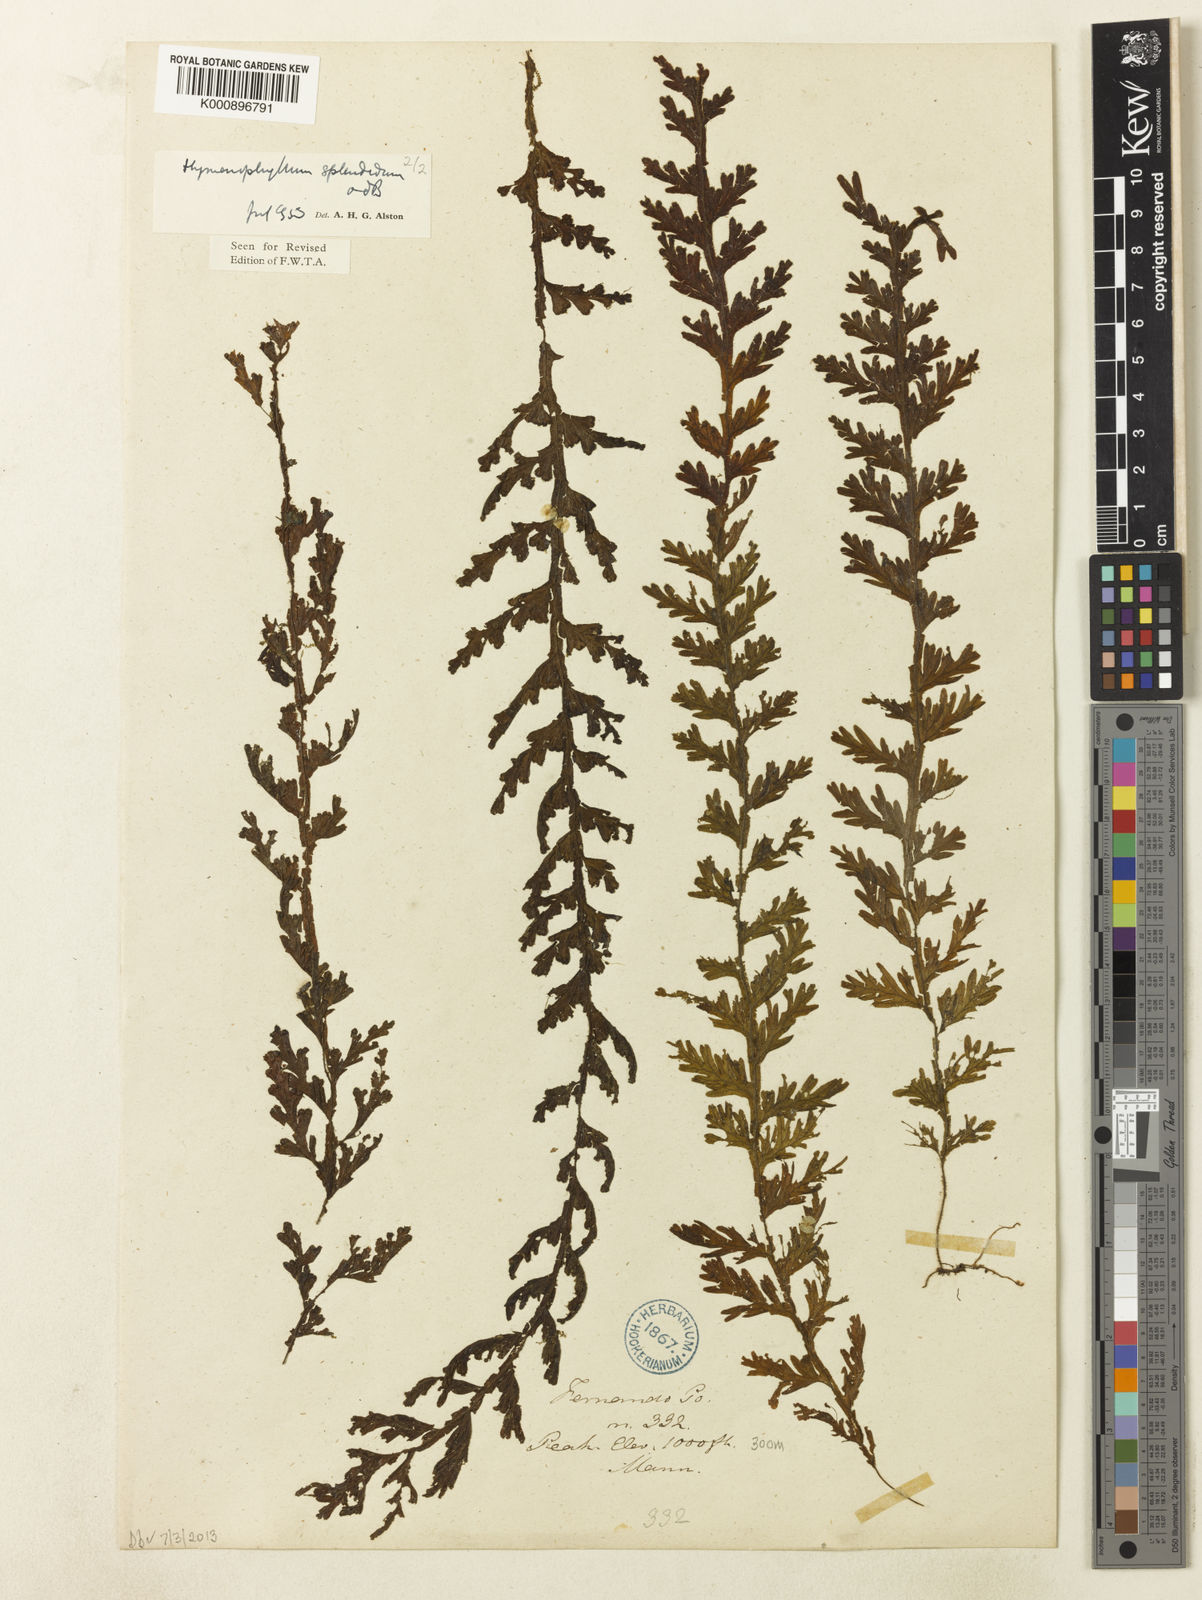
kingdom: Plantae
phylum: Tracheophyta
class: Polypodiopsida
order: Hymenophyllales
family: Hymenophyllaceae
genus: Hymenophyllum
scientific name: Hymenophyllum splendidum
